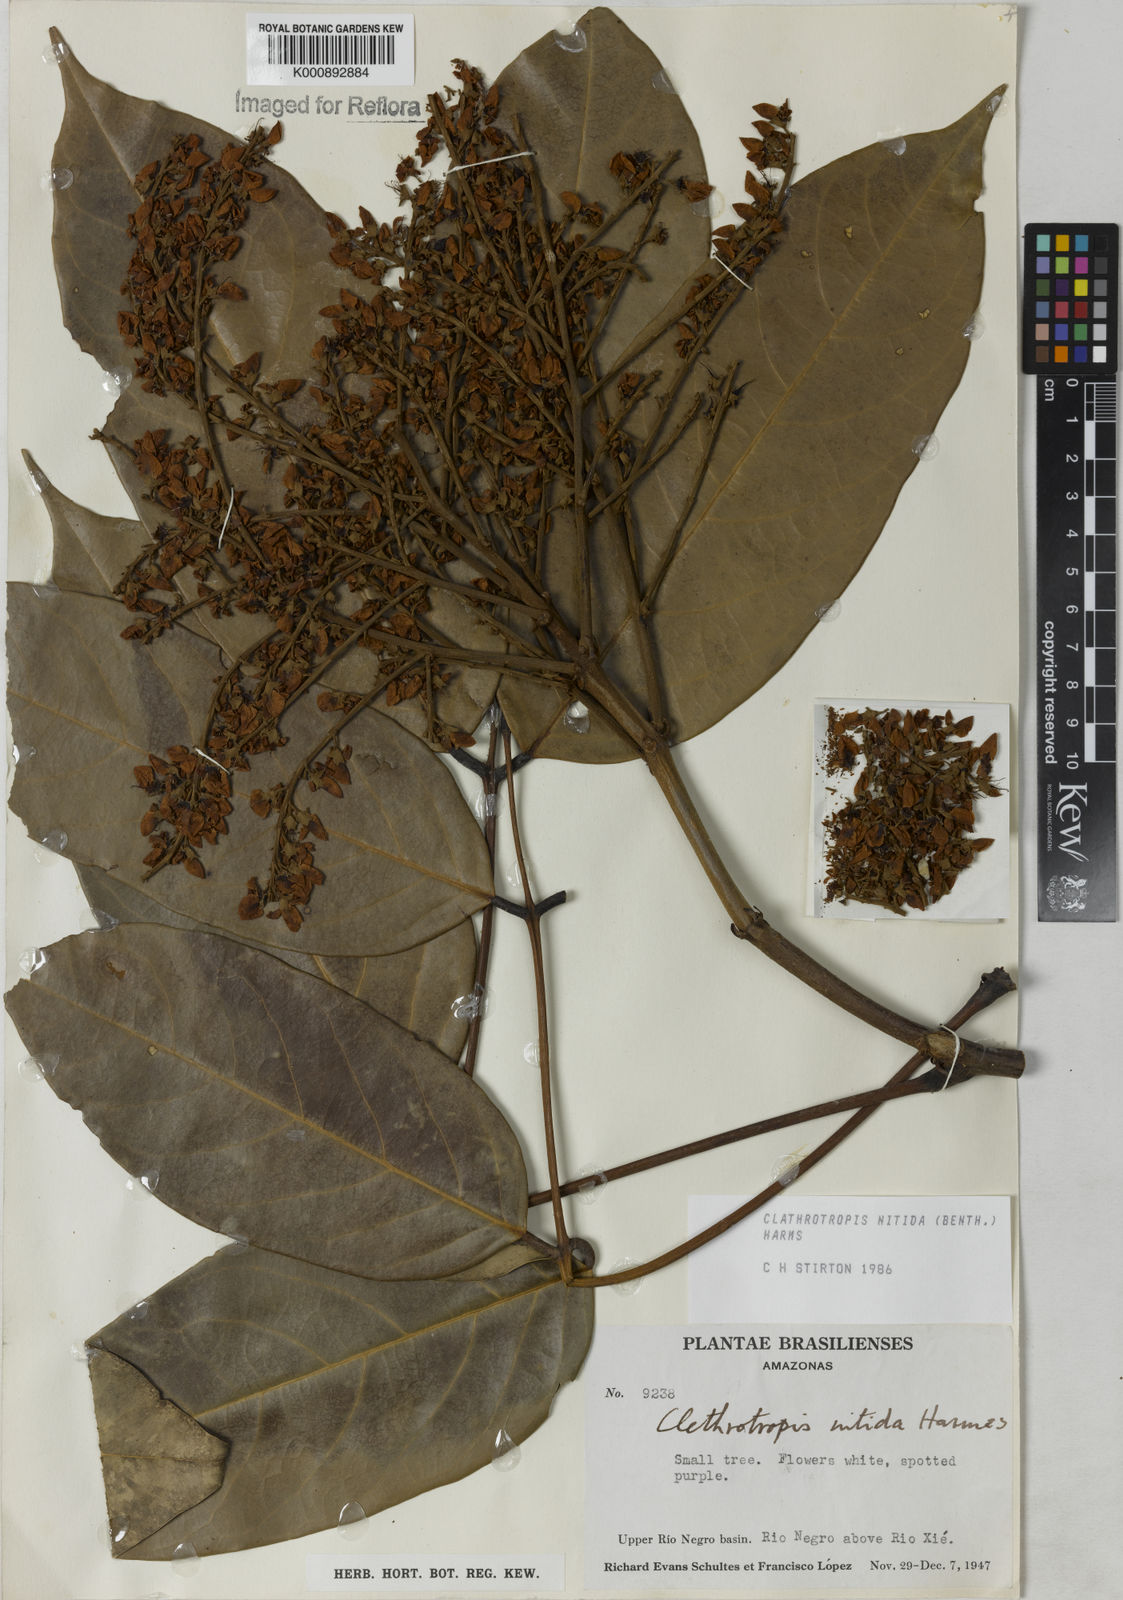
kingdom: Plantae
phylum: Tracheophyta
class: Magnoliopsida
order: Fabales
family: Fabaceae
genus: Clathrotropis
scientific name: Clathrotropis nitida
